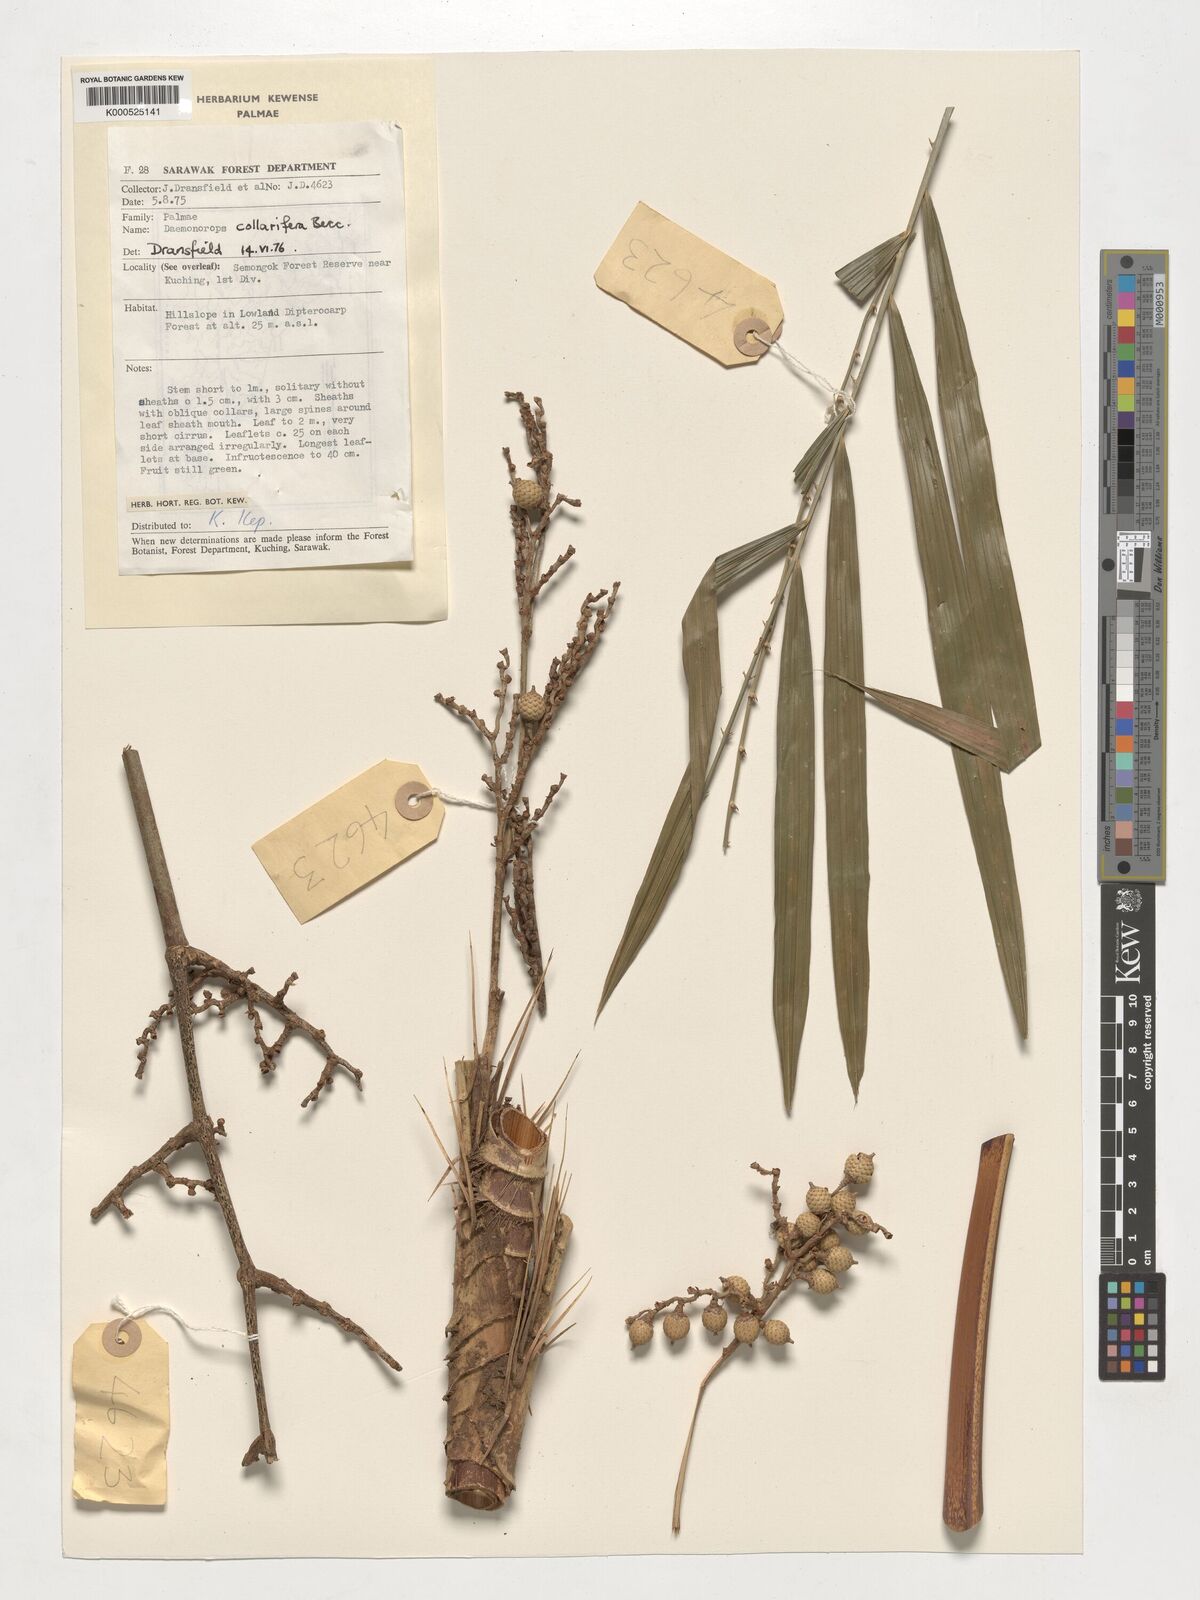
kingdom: Plantae
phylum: Tracheophyta
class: Liliopsida
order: Arecales
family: Arecaceae
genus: Calamus
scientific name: Calamus geniculatus
